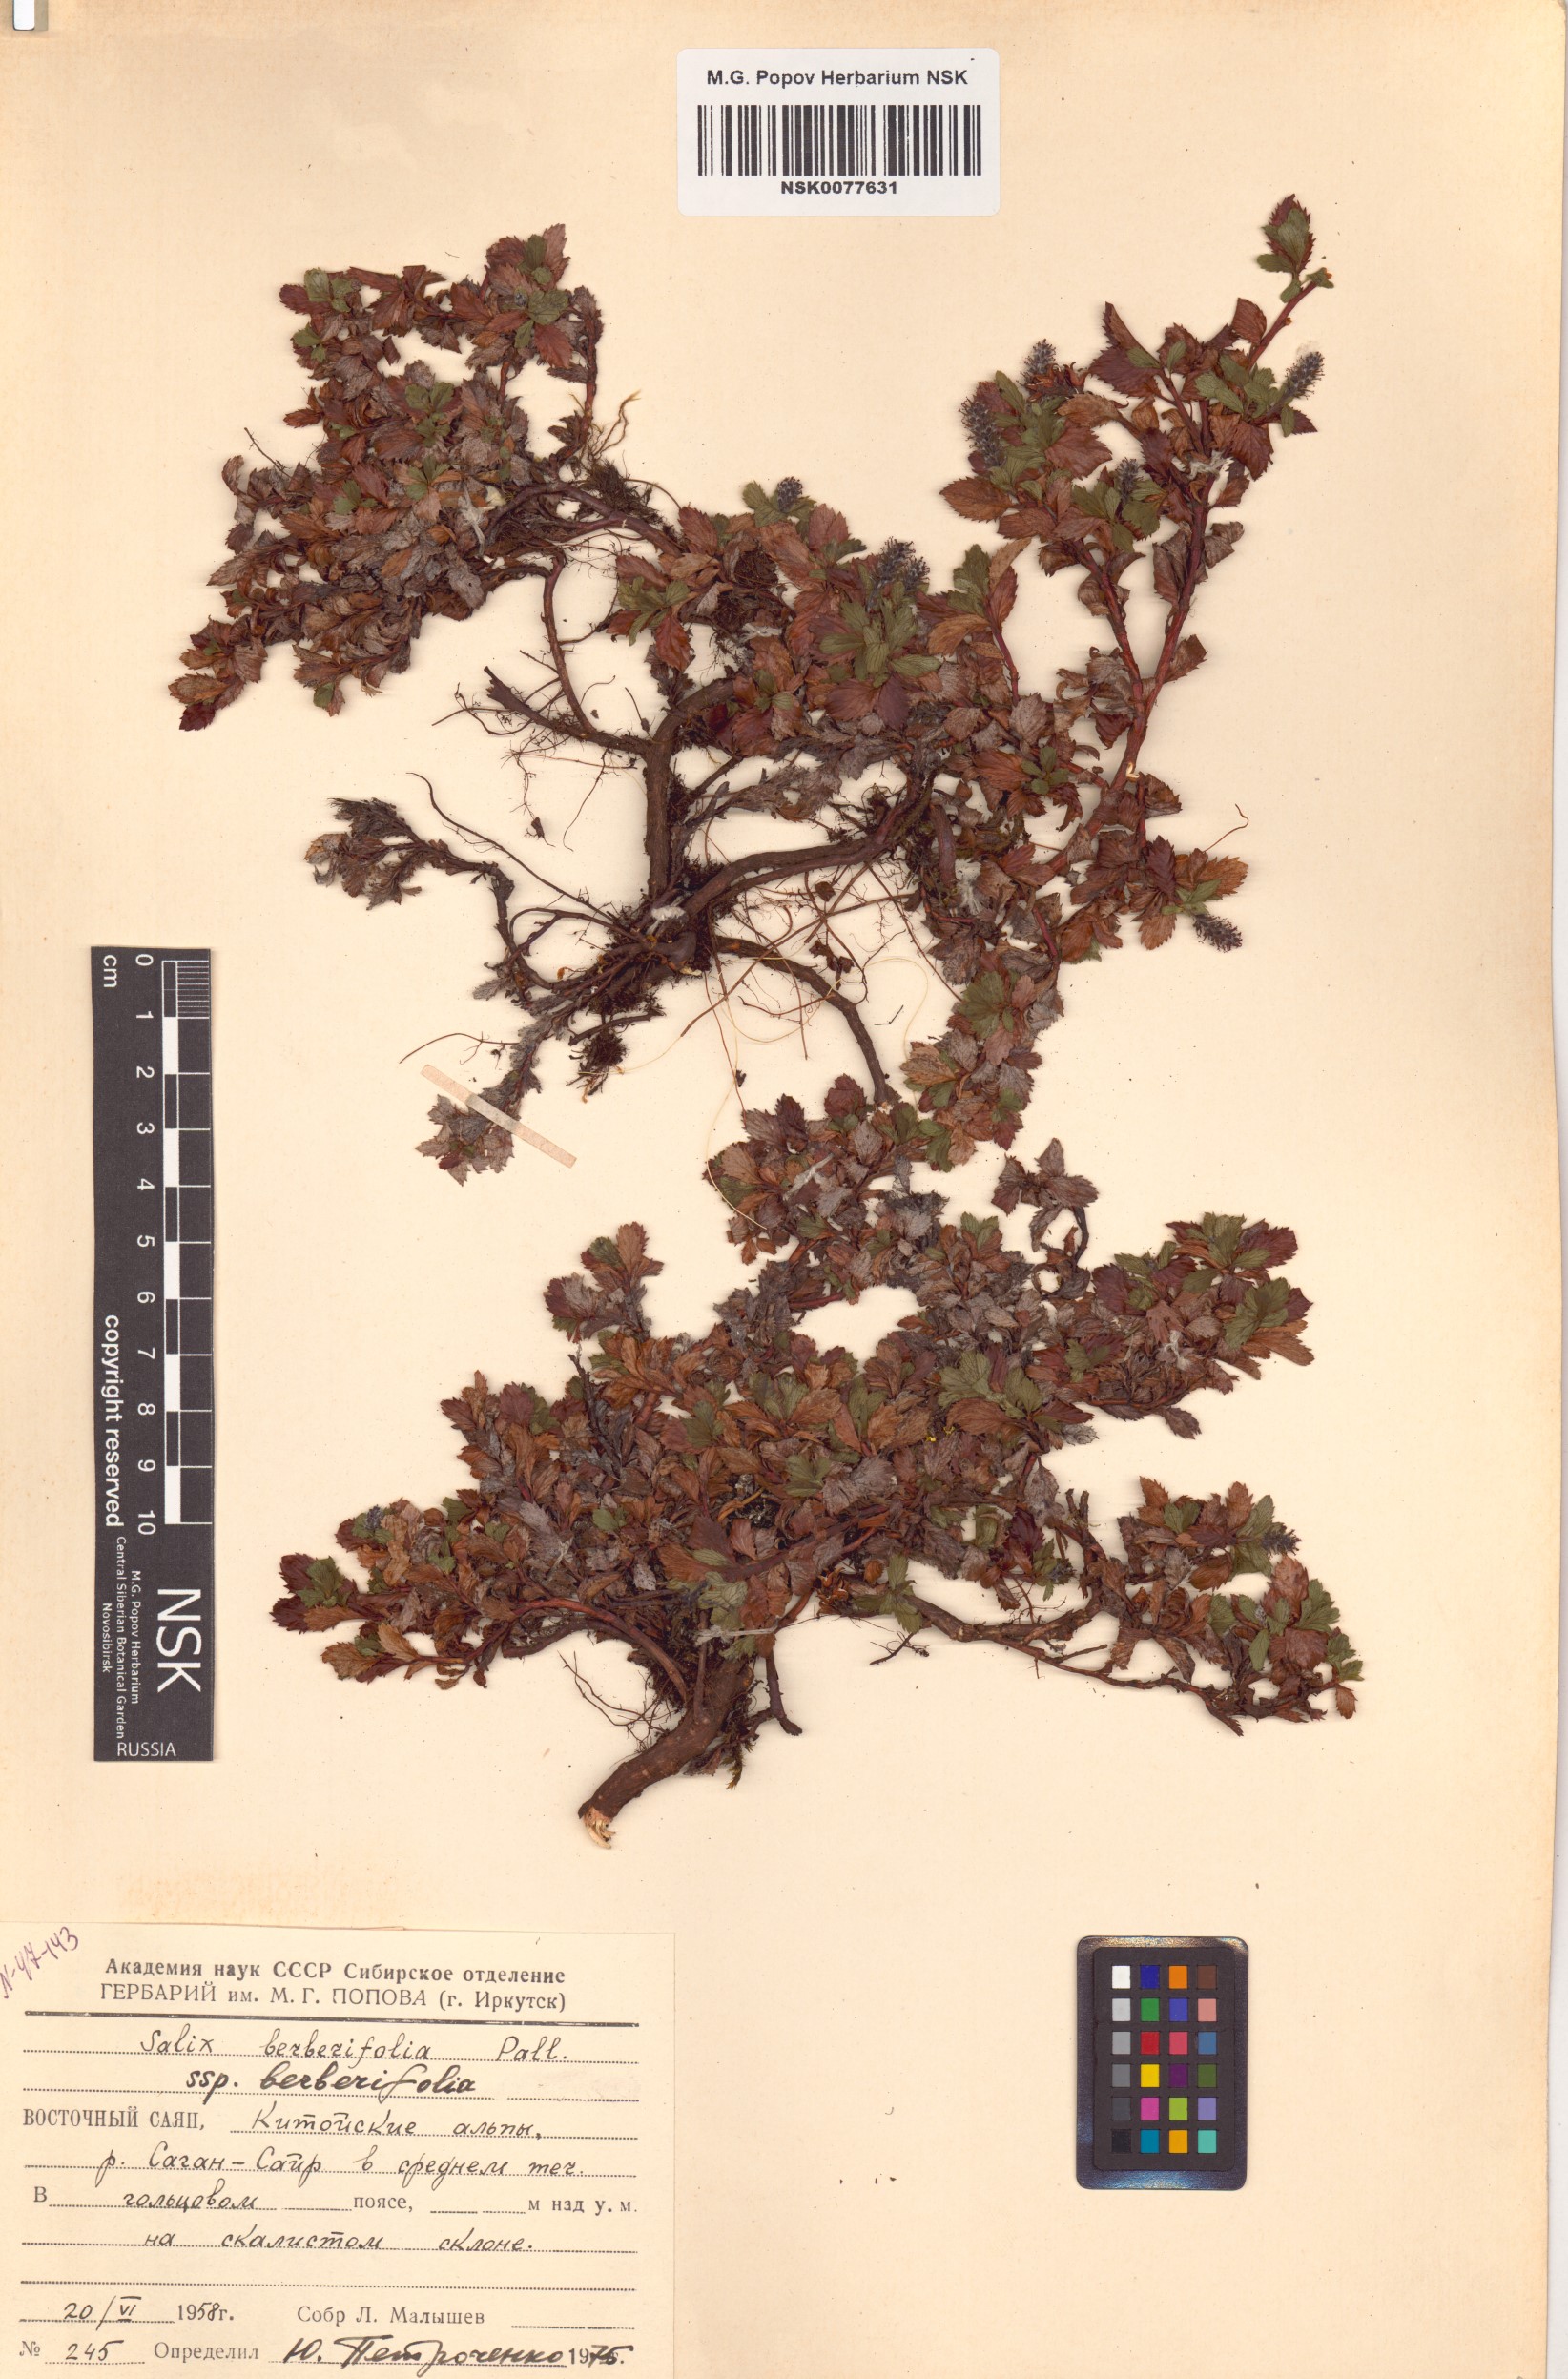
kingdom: Plantae
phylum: Tracheophyta
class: Magnoliopsida
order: Malpighiales
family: Salicaceae
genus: Salix
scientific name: Salix berberifolia
